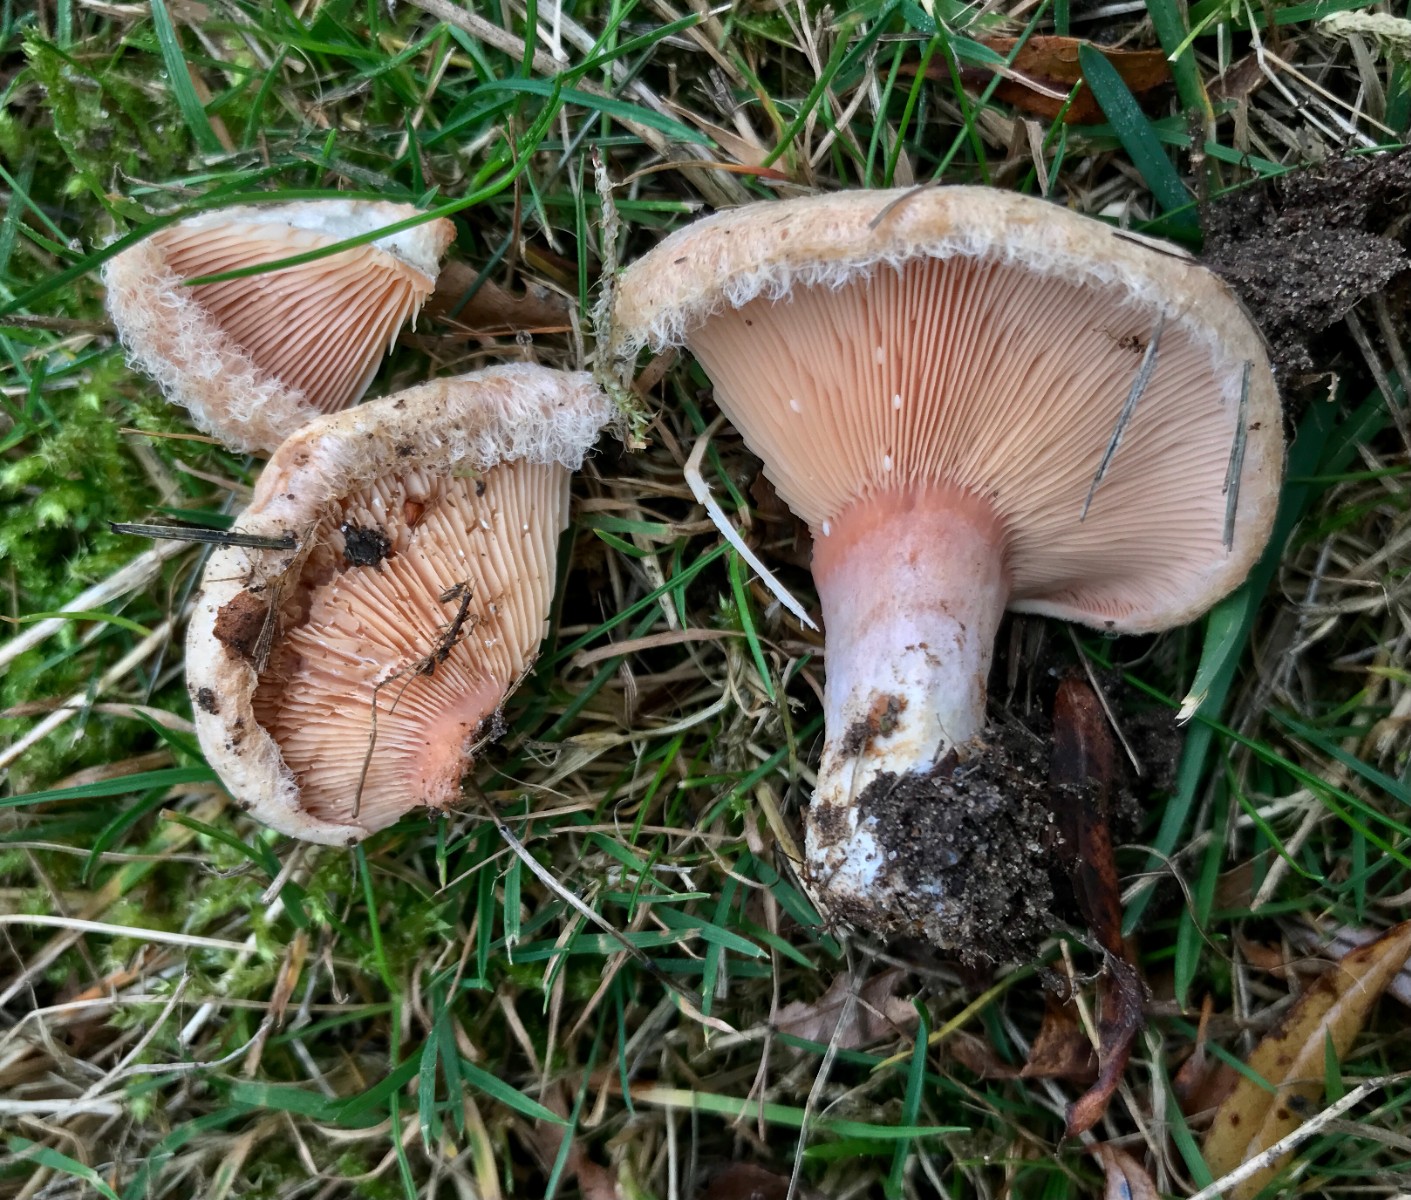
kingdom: Fungi
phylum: Basidiomycota
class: Agaricomycetes
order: Russulales
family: Russulaceae
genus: Lactarius
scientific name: Lactarius torminosus
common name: skægget mælkehat
